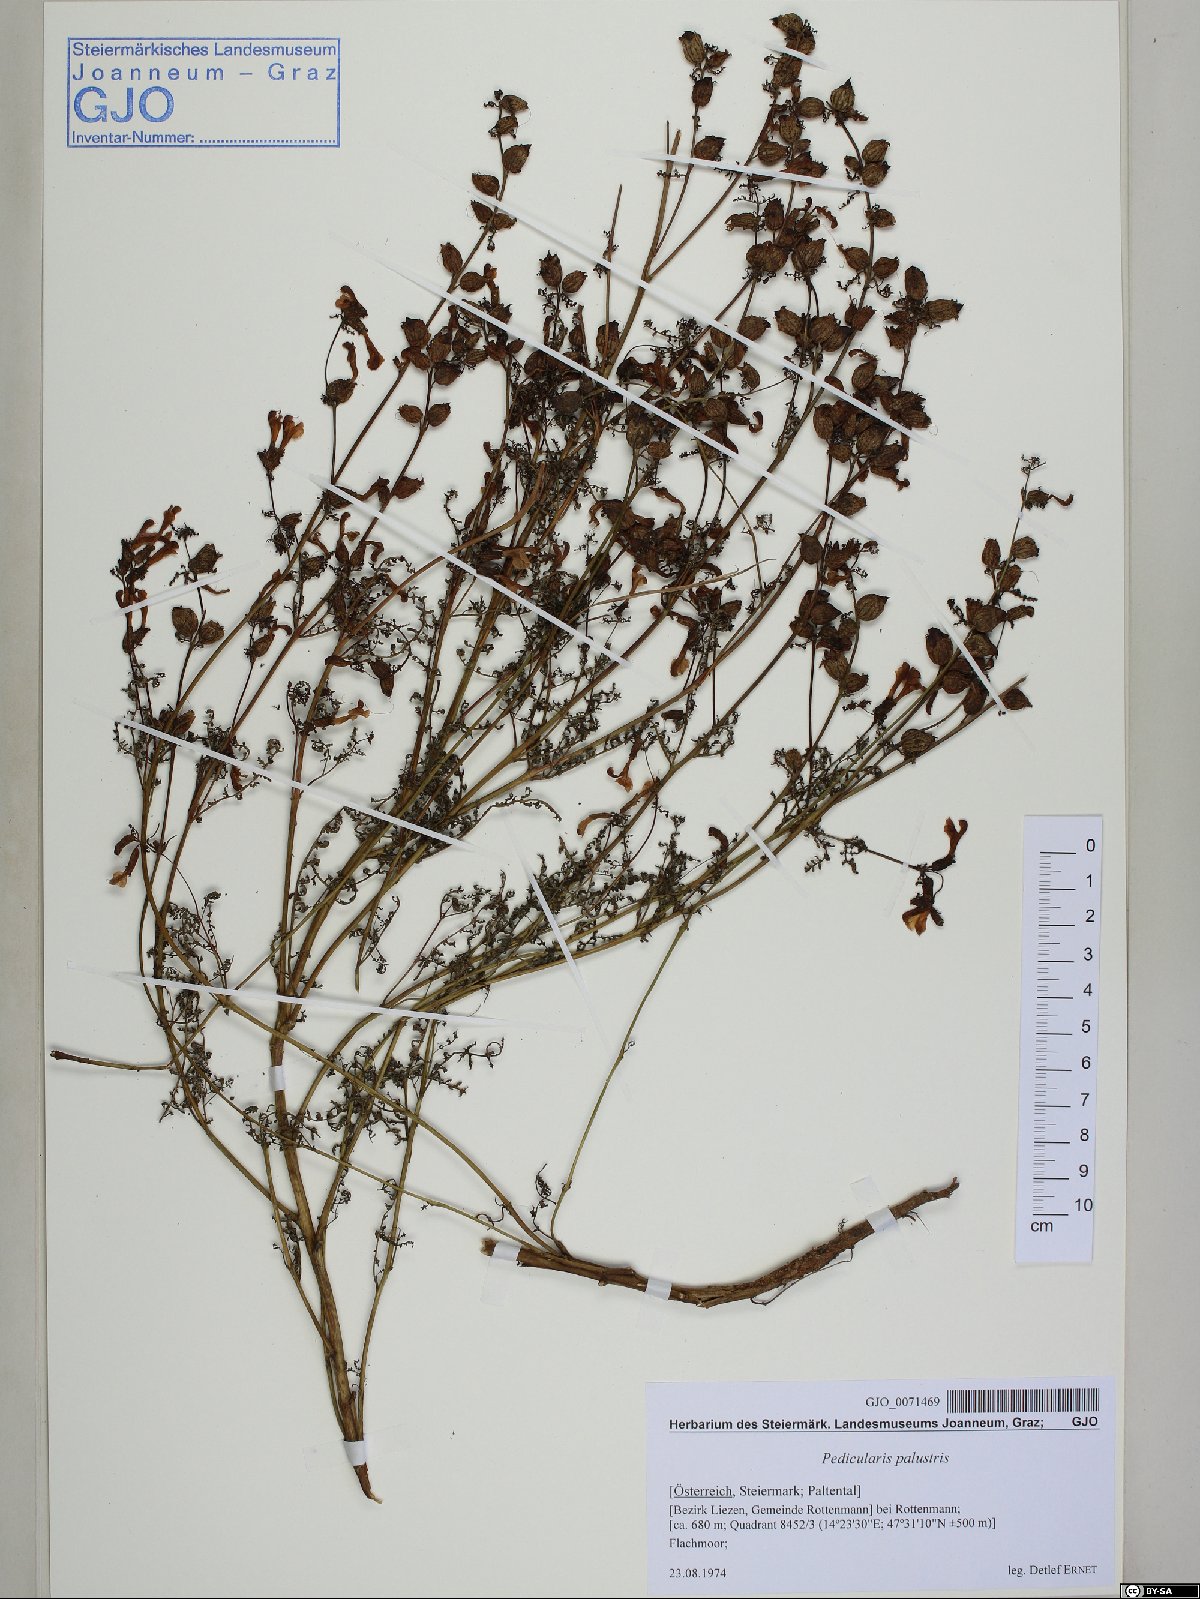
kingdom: Plantae
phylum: Tracheophyta
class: Magnoliopsida
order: Lamiales
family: Orobanchaceae
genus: Pedicularis
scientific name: Pedicularis palustris
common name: Marsh lousewort
